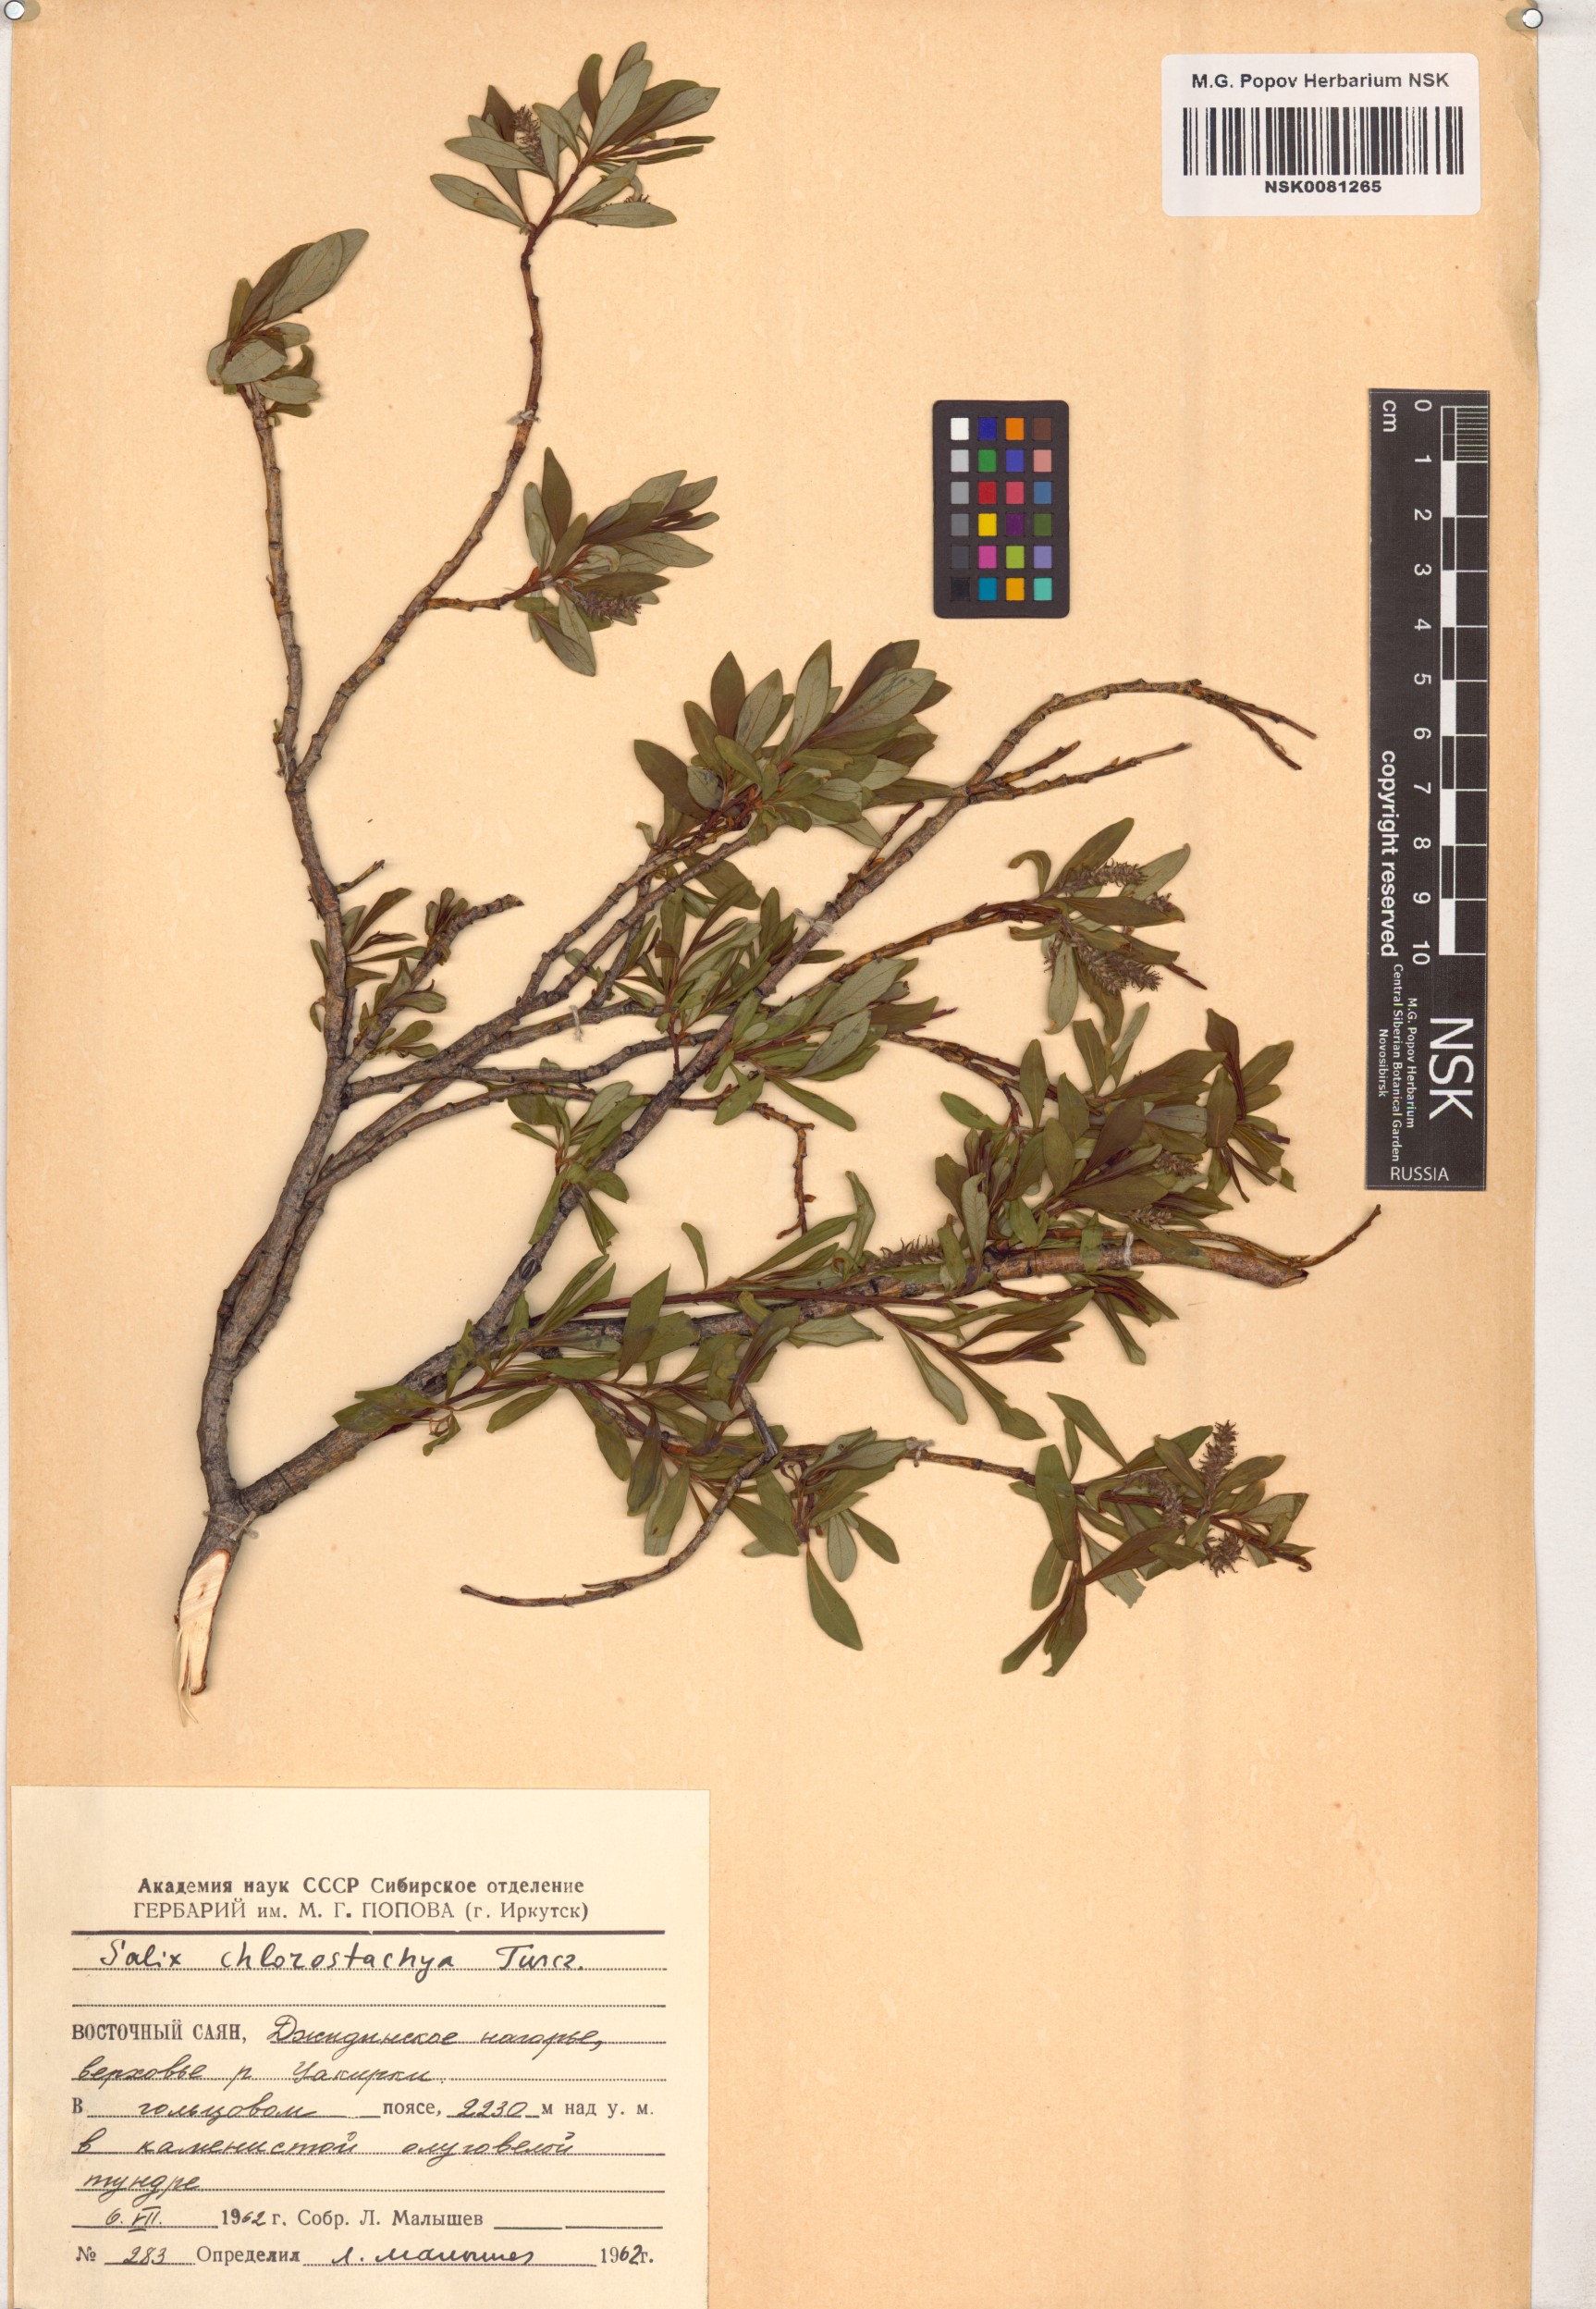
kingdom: Plantae
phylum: Tracheophyta
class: Magnoliopsida
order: Malpighiales
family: Salicaceae
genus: Salix
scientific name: Salix rhamnifolia
